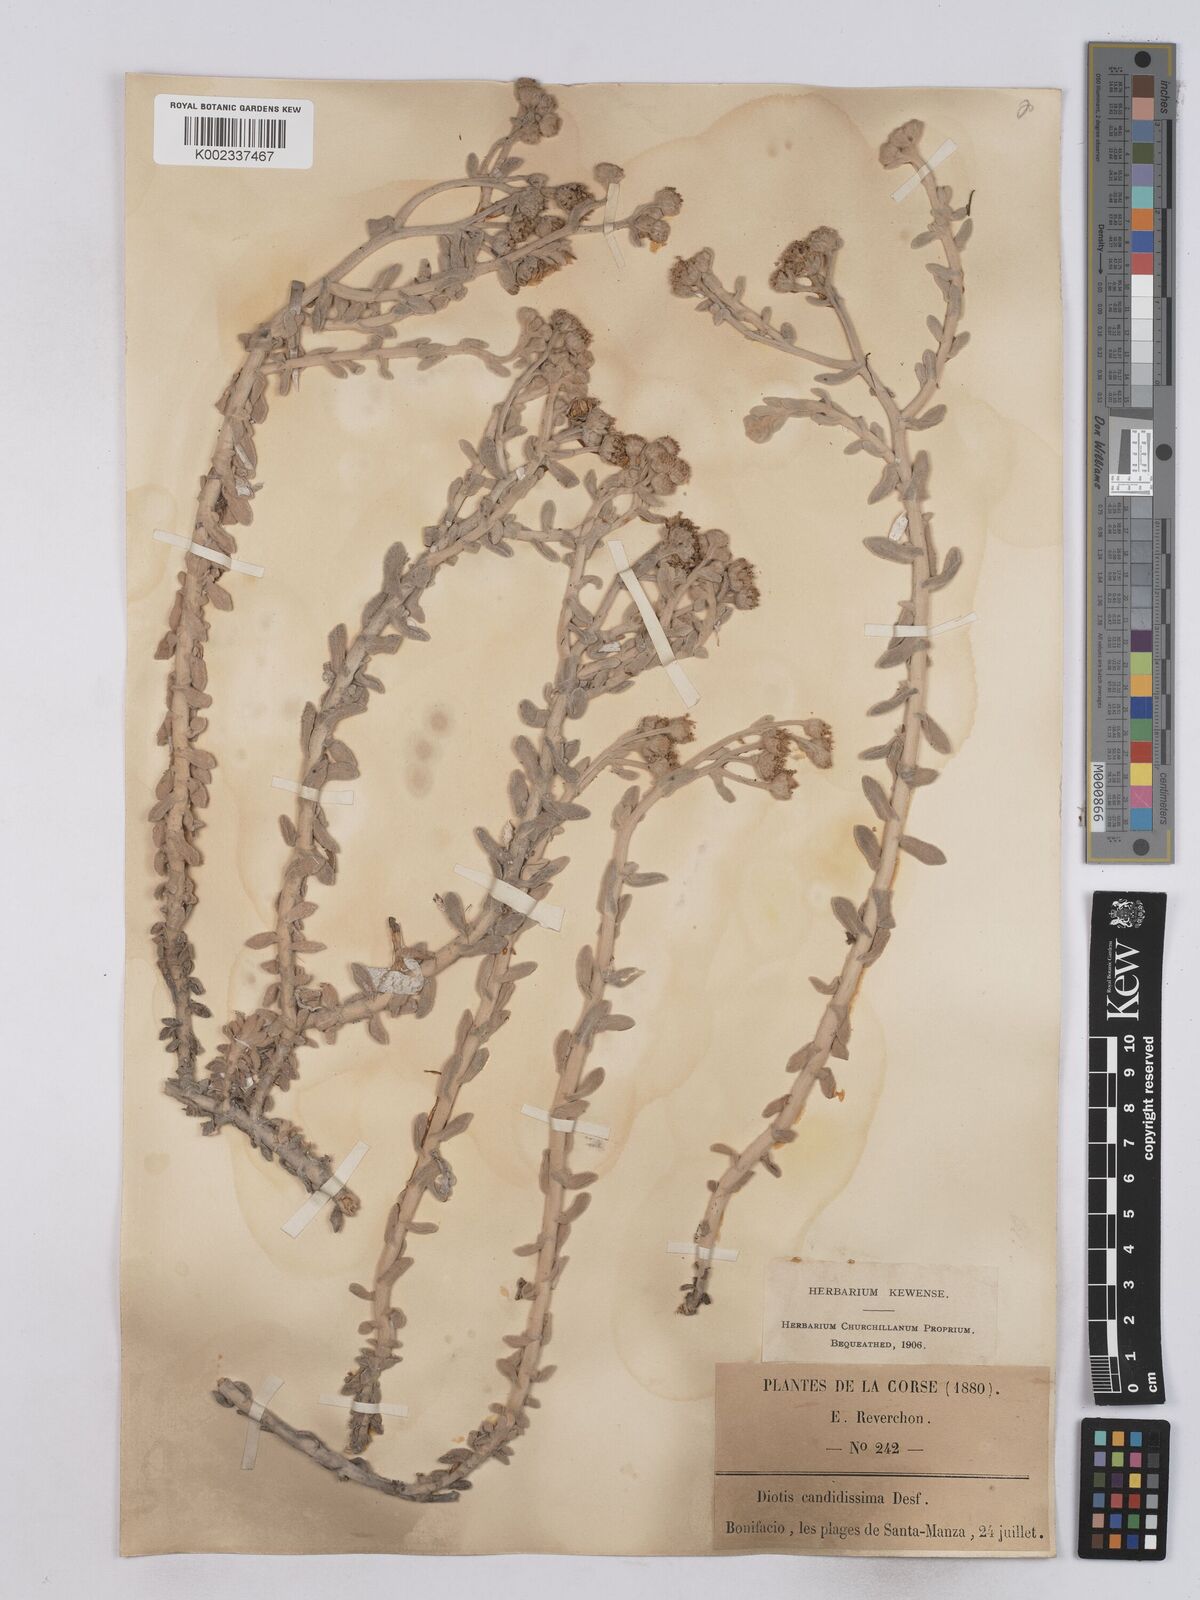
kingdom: Plantae
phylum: Tracheophyta
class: Magnoliopsida
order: Asterales
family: Asteraceae
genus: Achillea
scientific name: Achillea maritima
